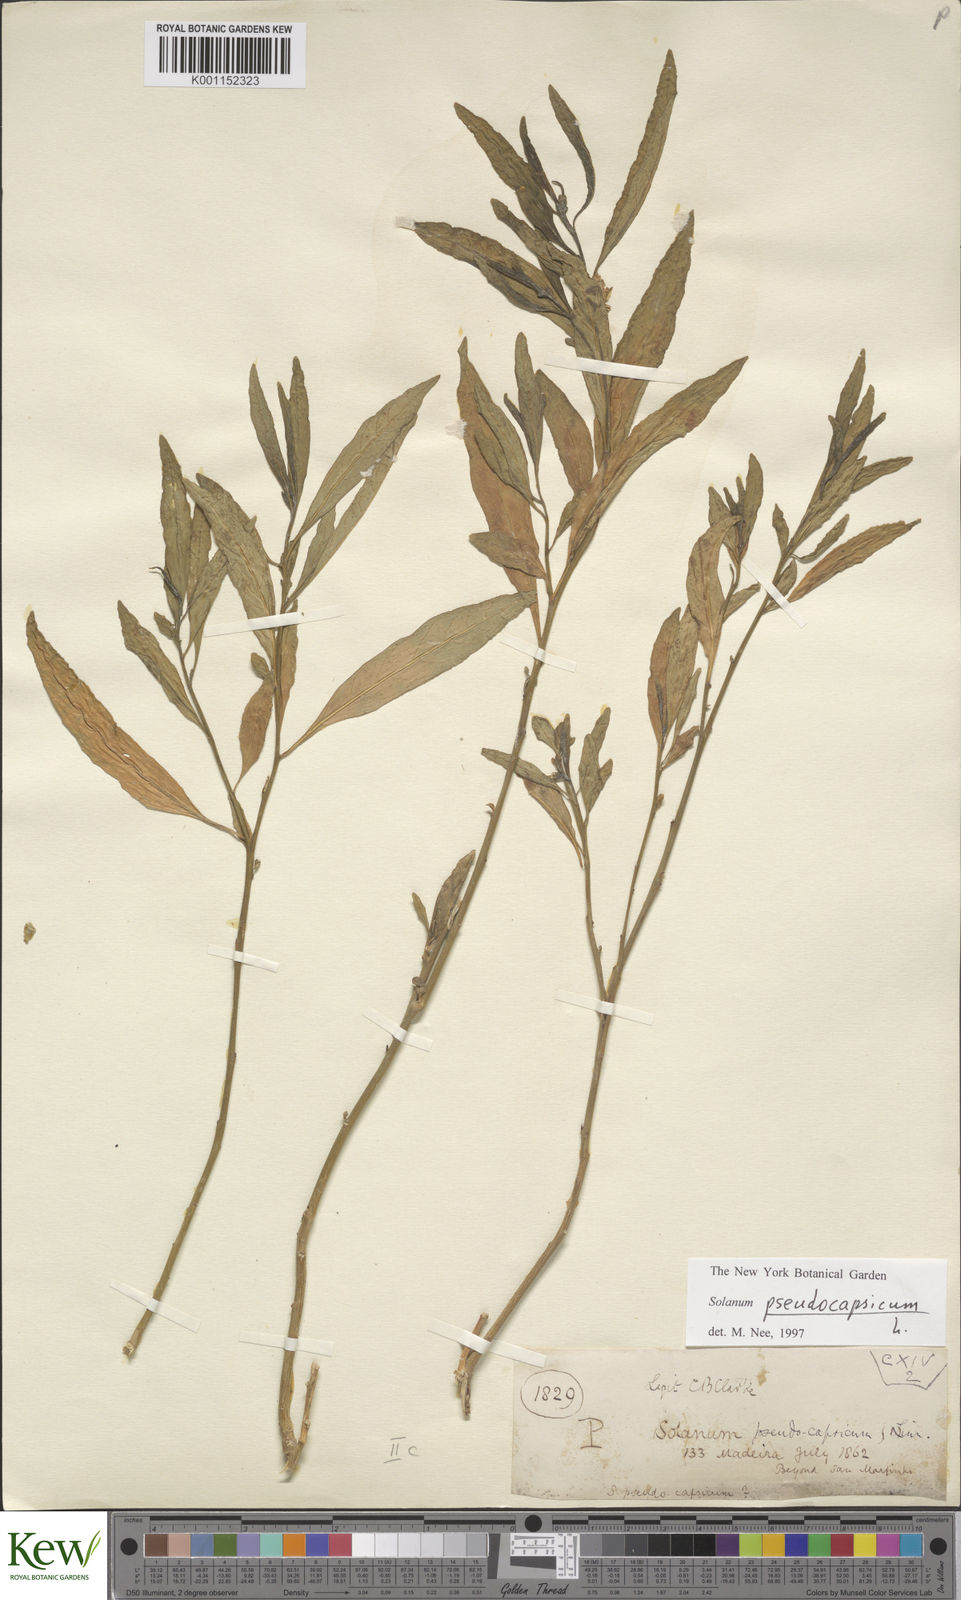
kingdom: Plantae
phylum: Tracheophyta
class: Magnoliopsida
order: Solanales
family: Solanaceae
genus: Solanum
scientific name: Solanum pseudocapsicum
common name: Jerusalem cherry
